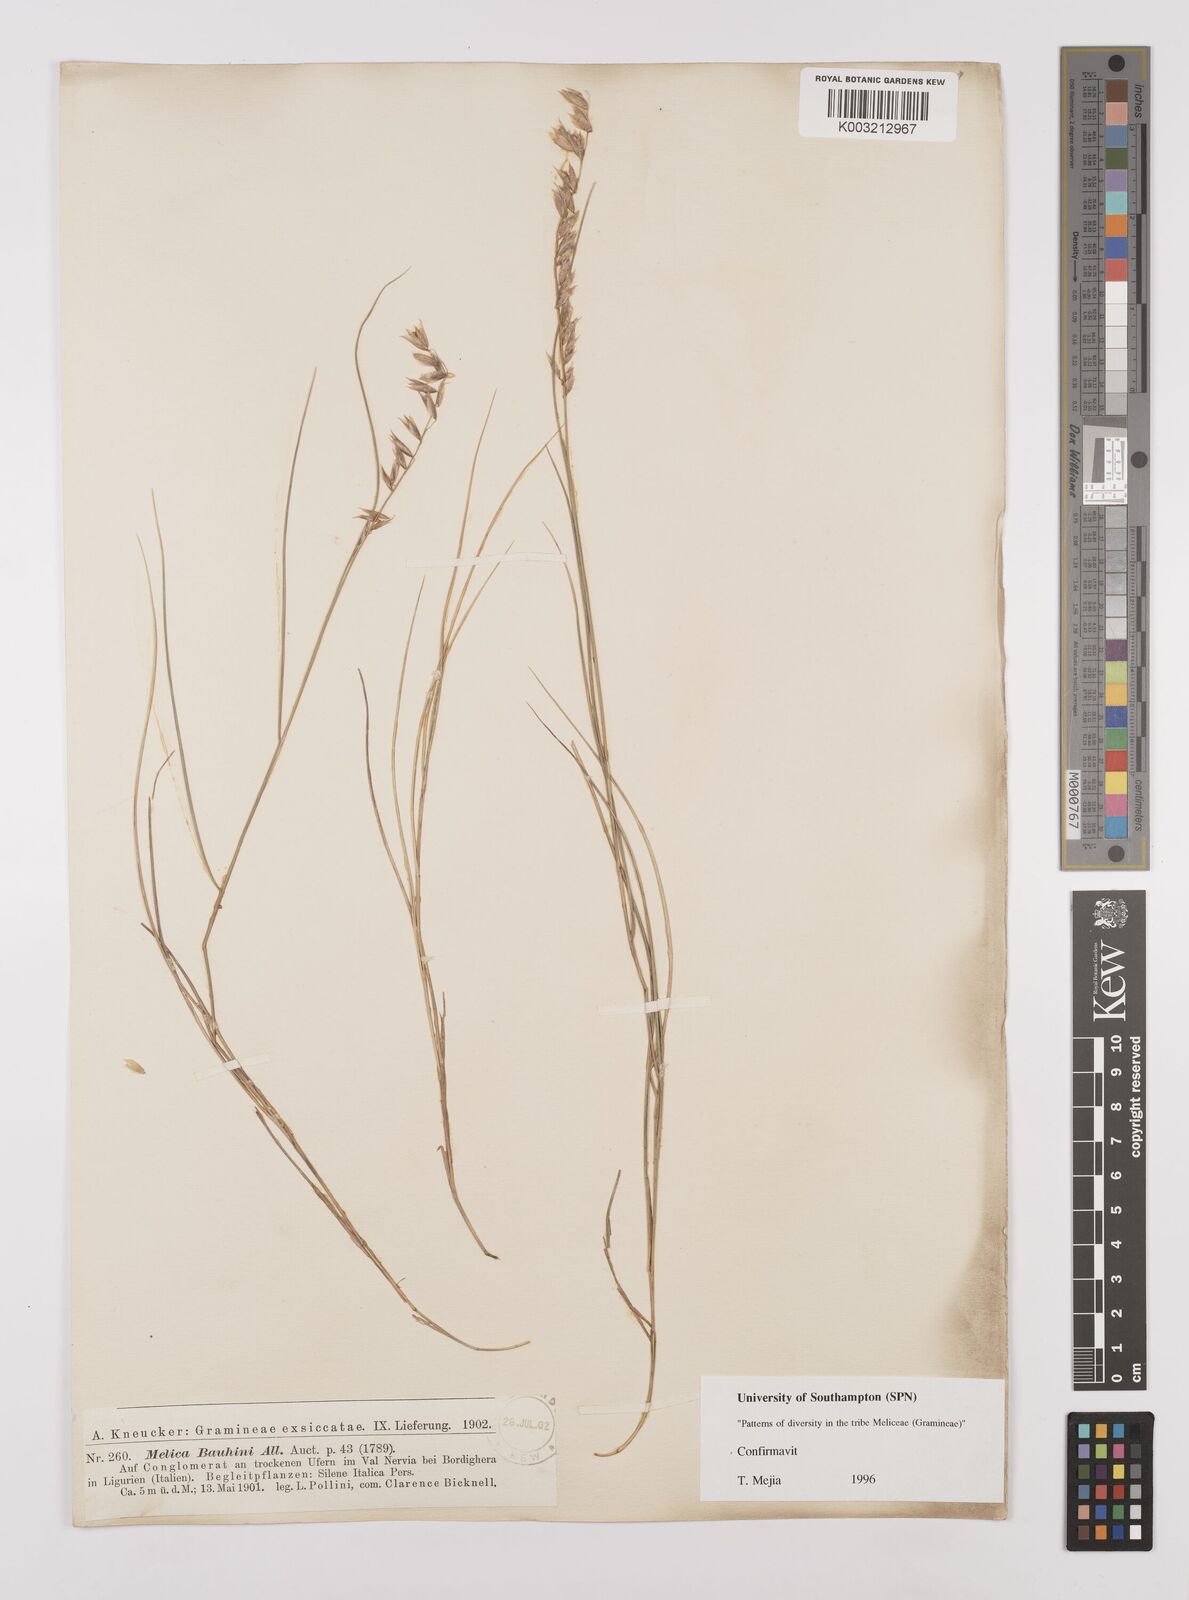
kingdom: Plantae
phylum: Tracheophyta
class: Liliopsida
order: Poales
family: Poaceae
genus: Melica
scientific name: Melica amethystina
